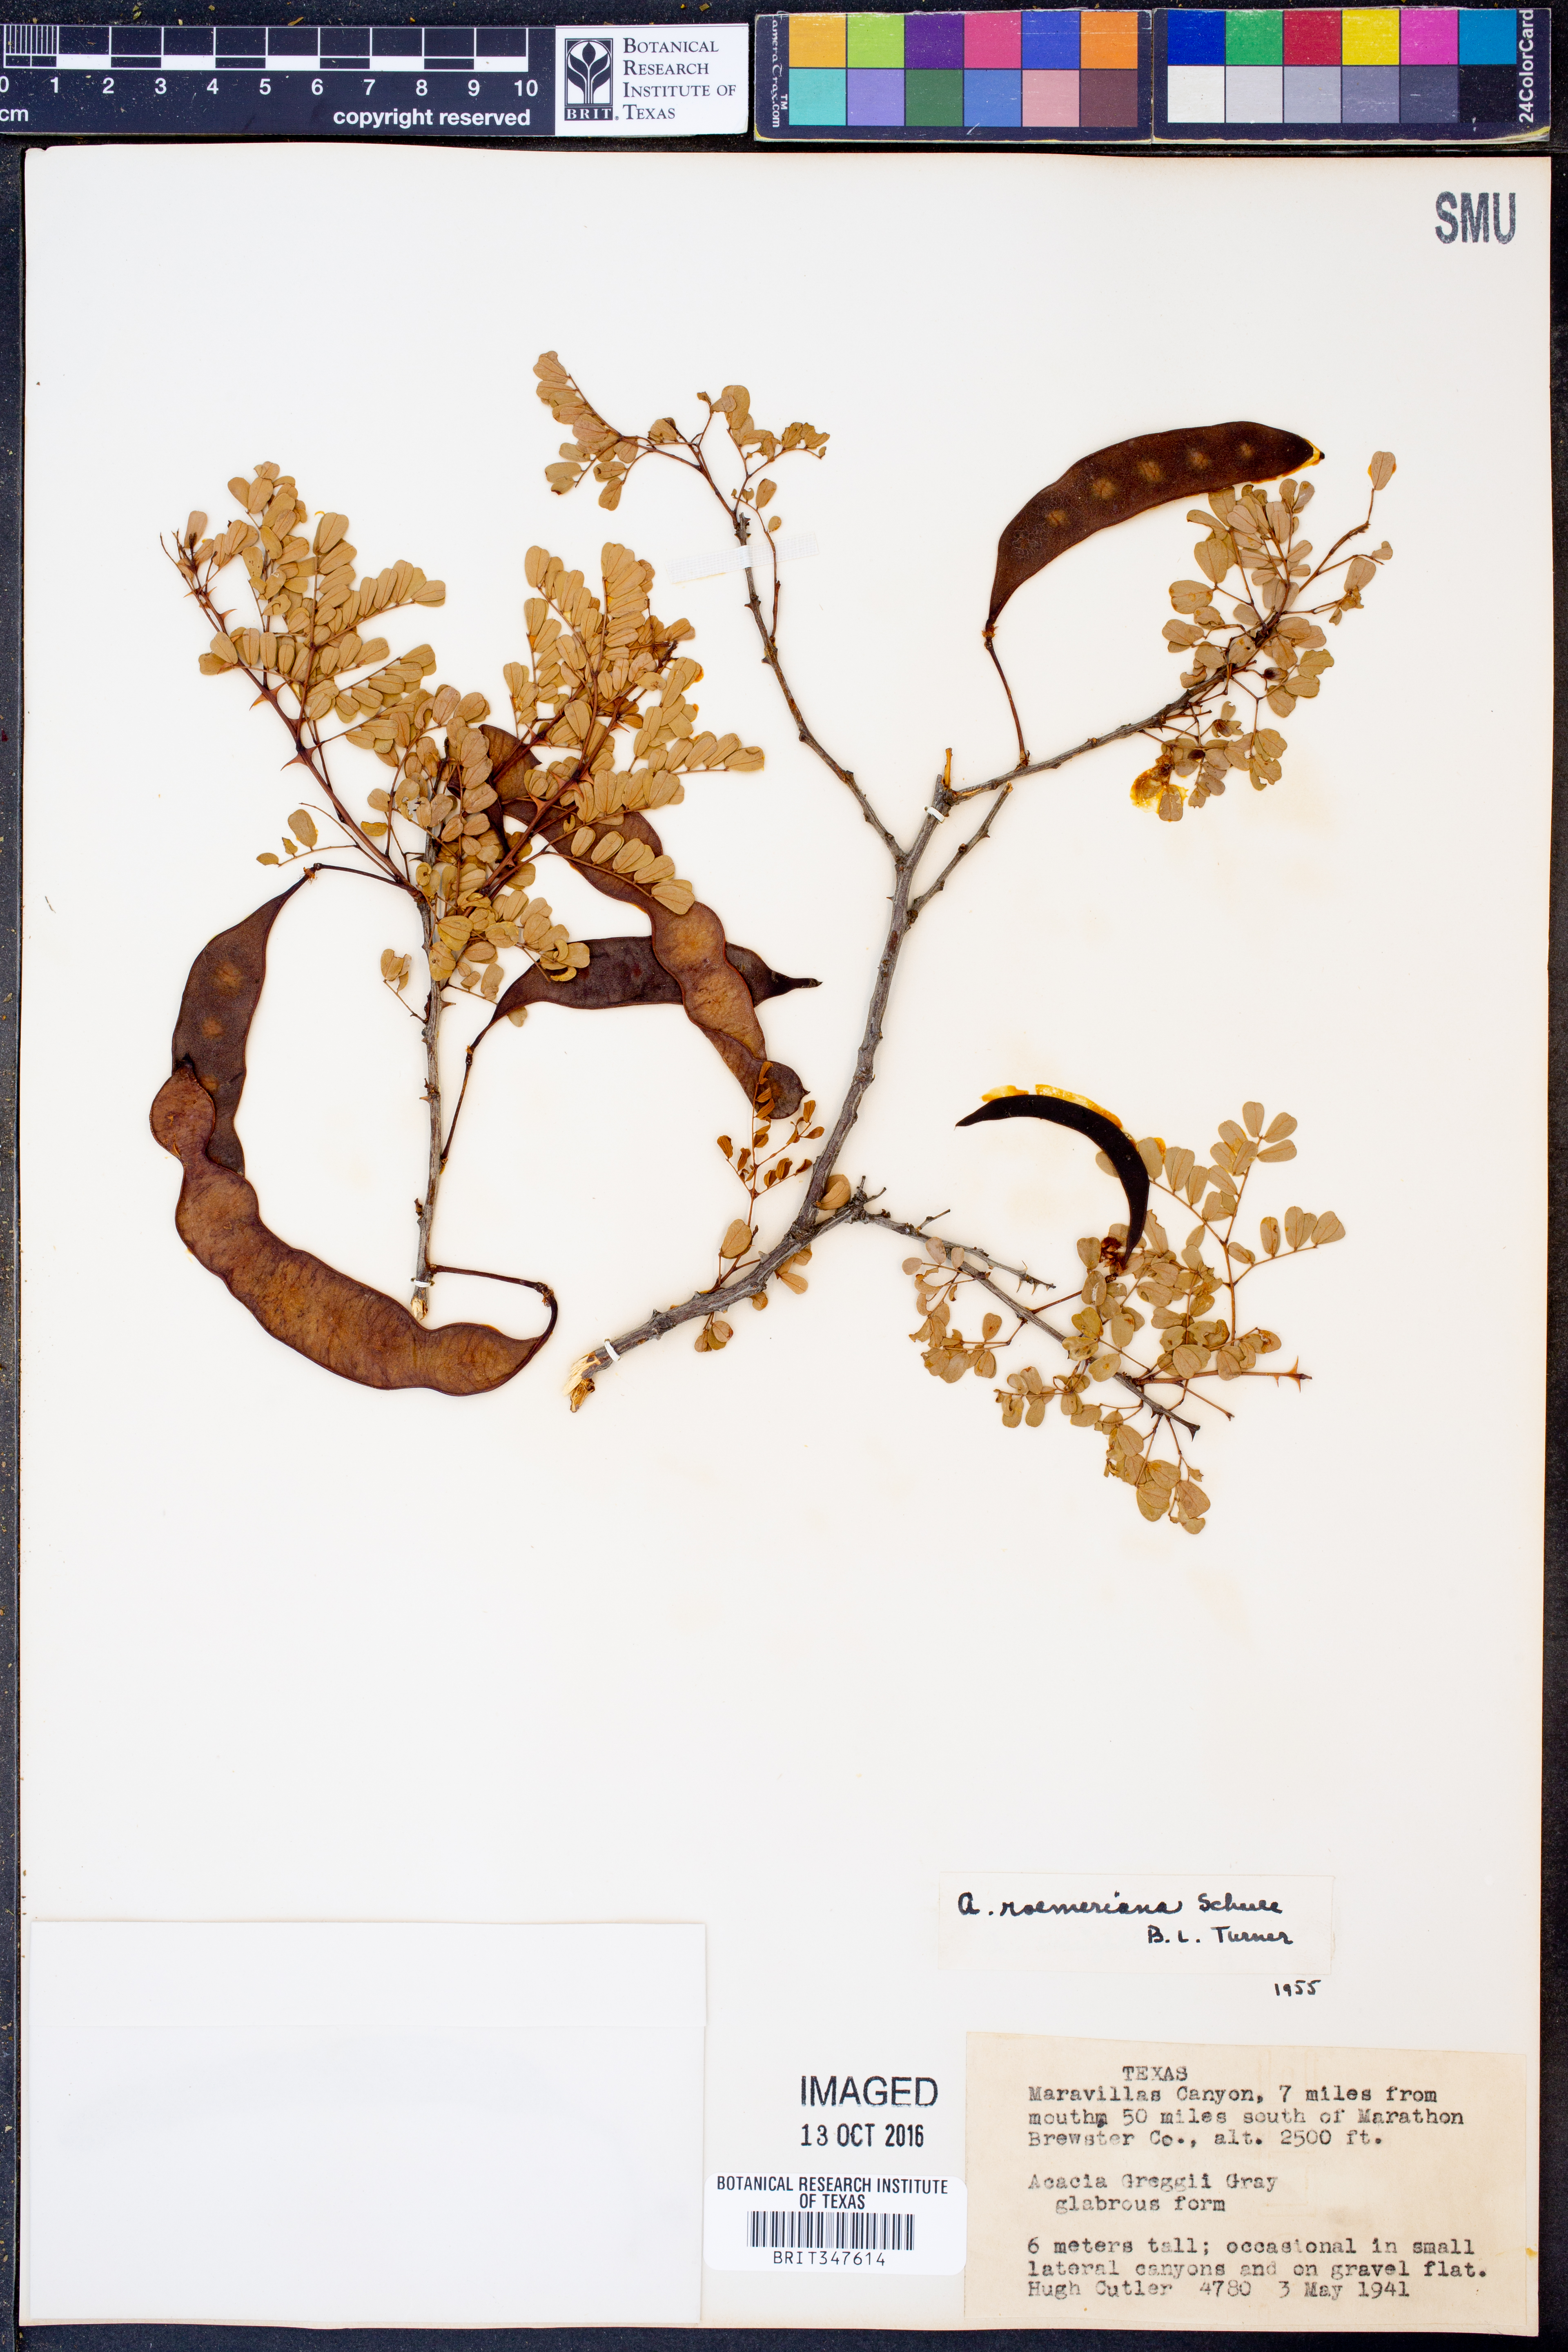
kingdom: Plantae
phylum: Tracheophyta
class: Magnoliopsida
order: Fabales
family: Fabaceae
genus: Senegalia
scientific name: Senegalia roemeriana
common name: Roemer's acacia
